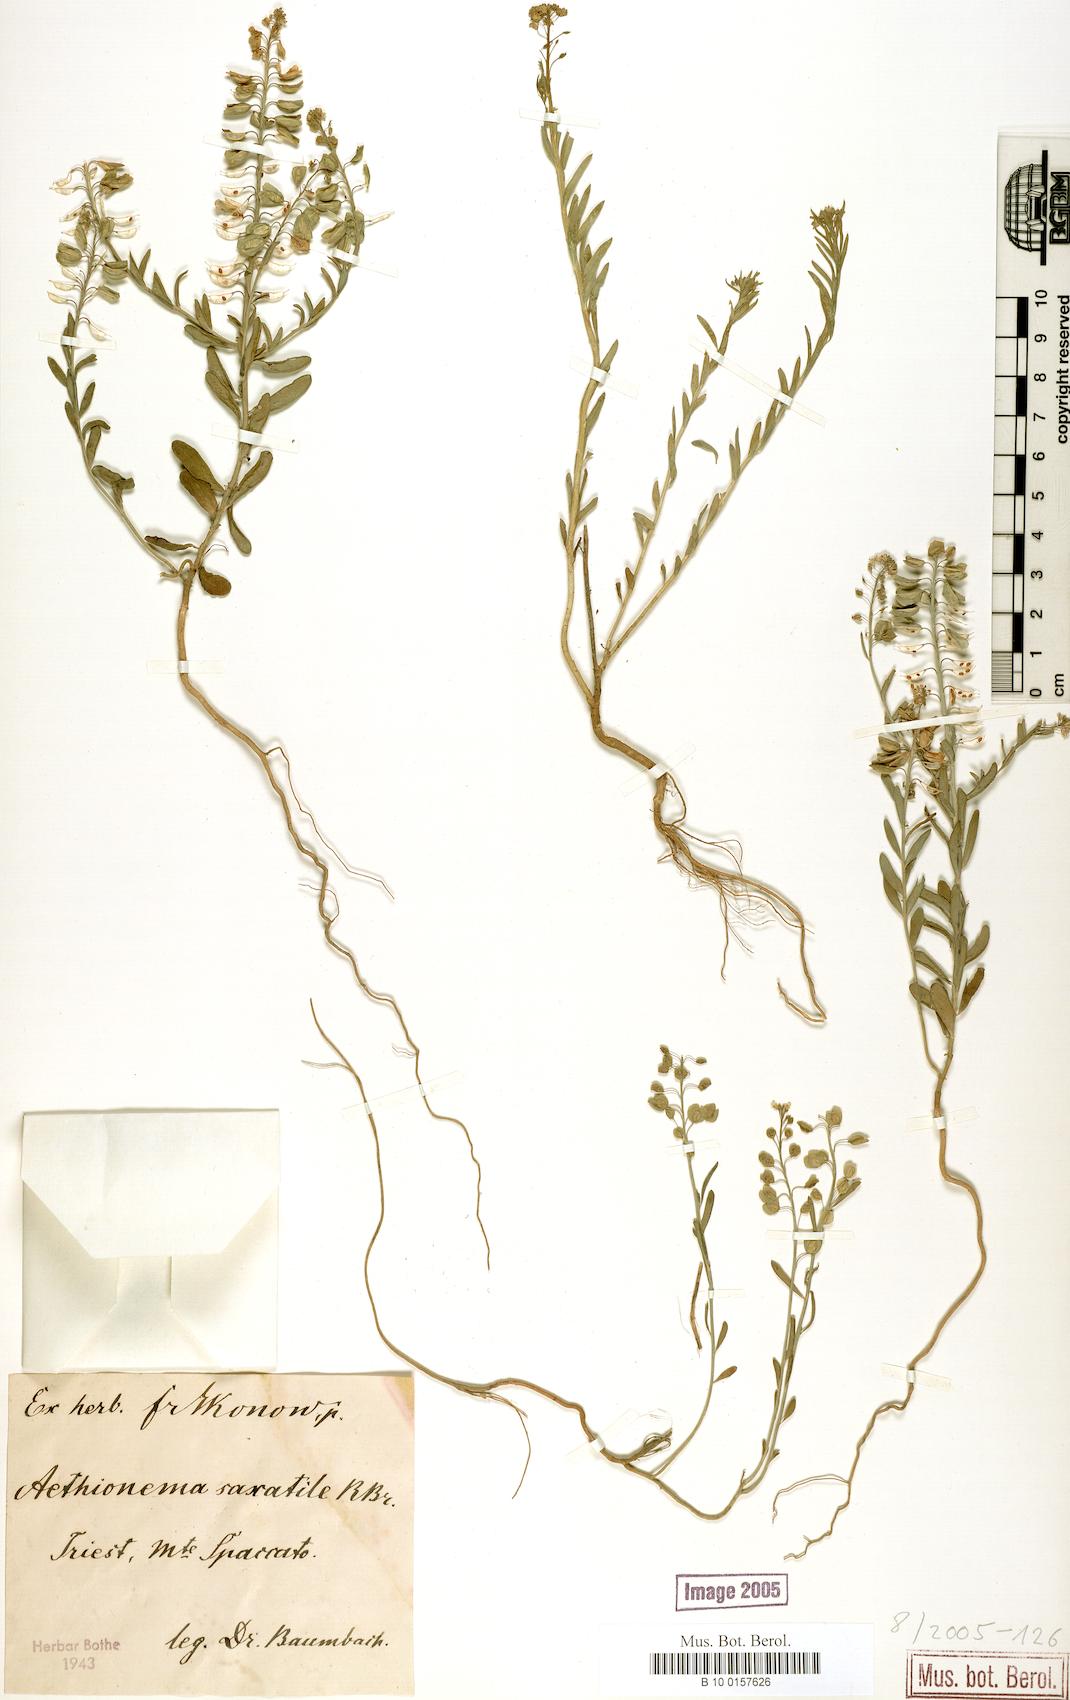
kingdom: Plantae
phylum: Tracheophyta
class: Magnoliopsida
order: Brassicales
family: Brassicaceae
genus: Aethionema
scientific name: Aethionema saxatile
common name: Burnt candytuft
